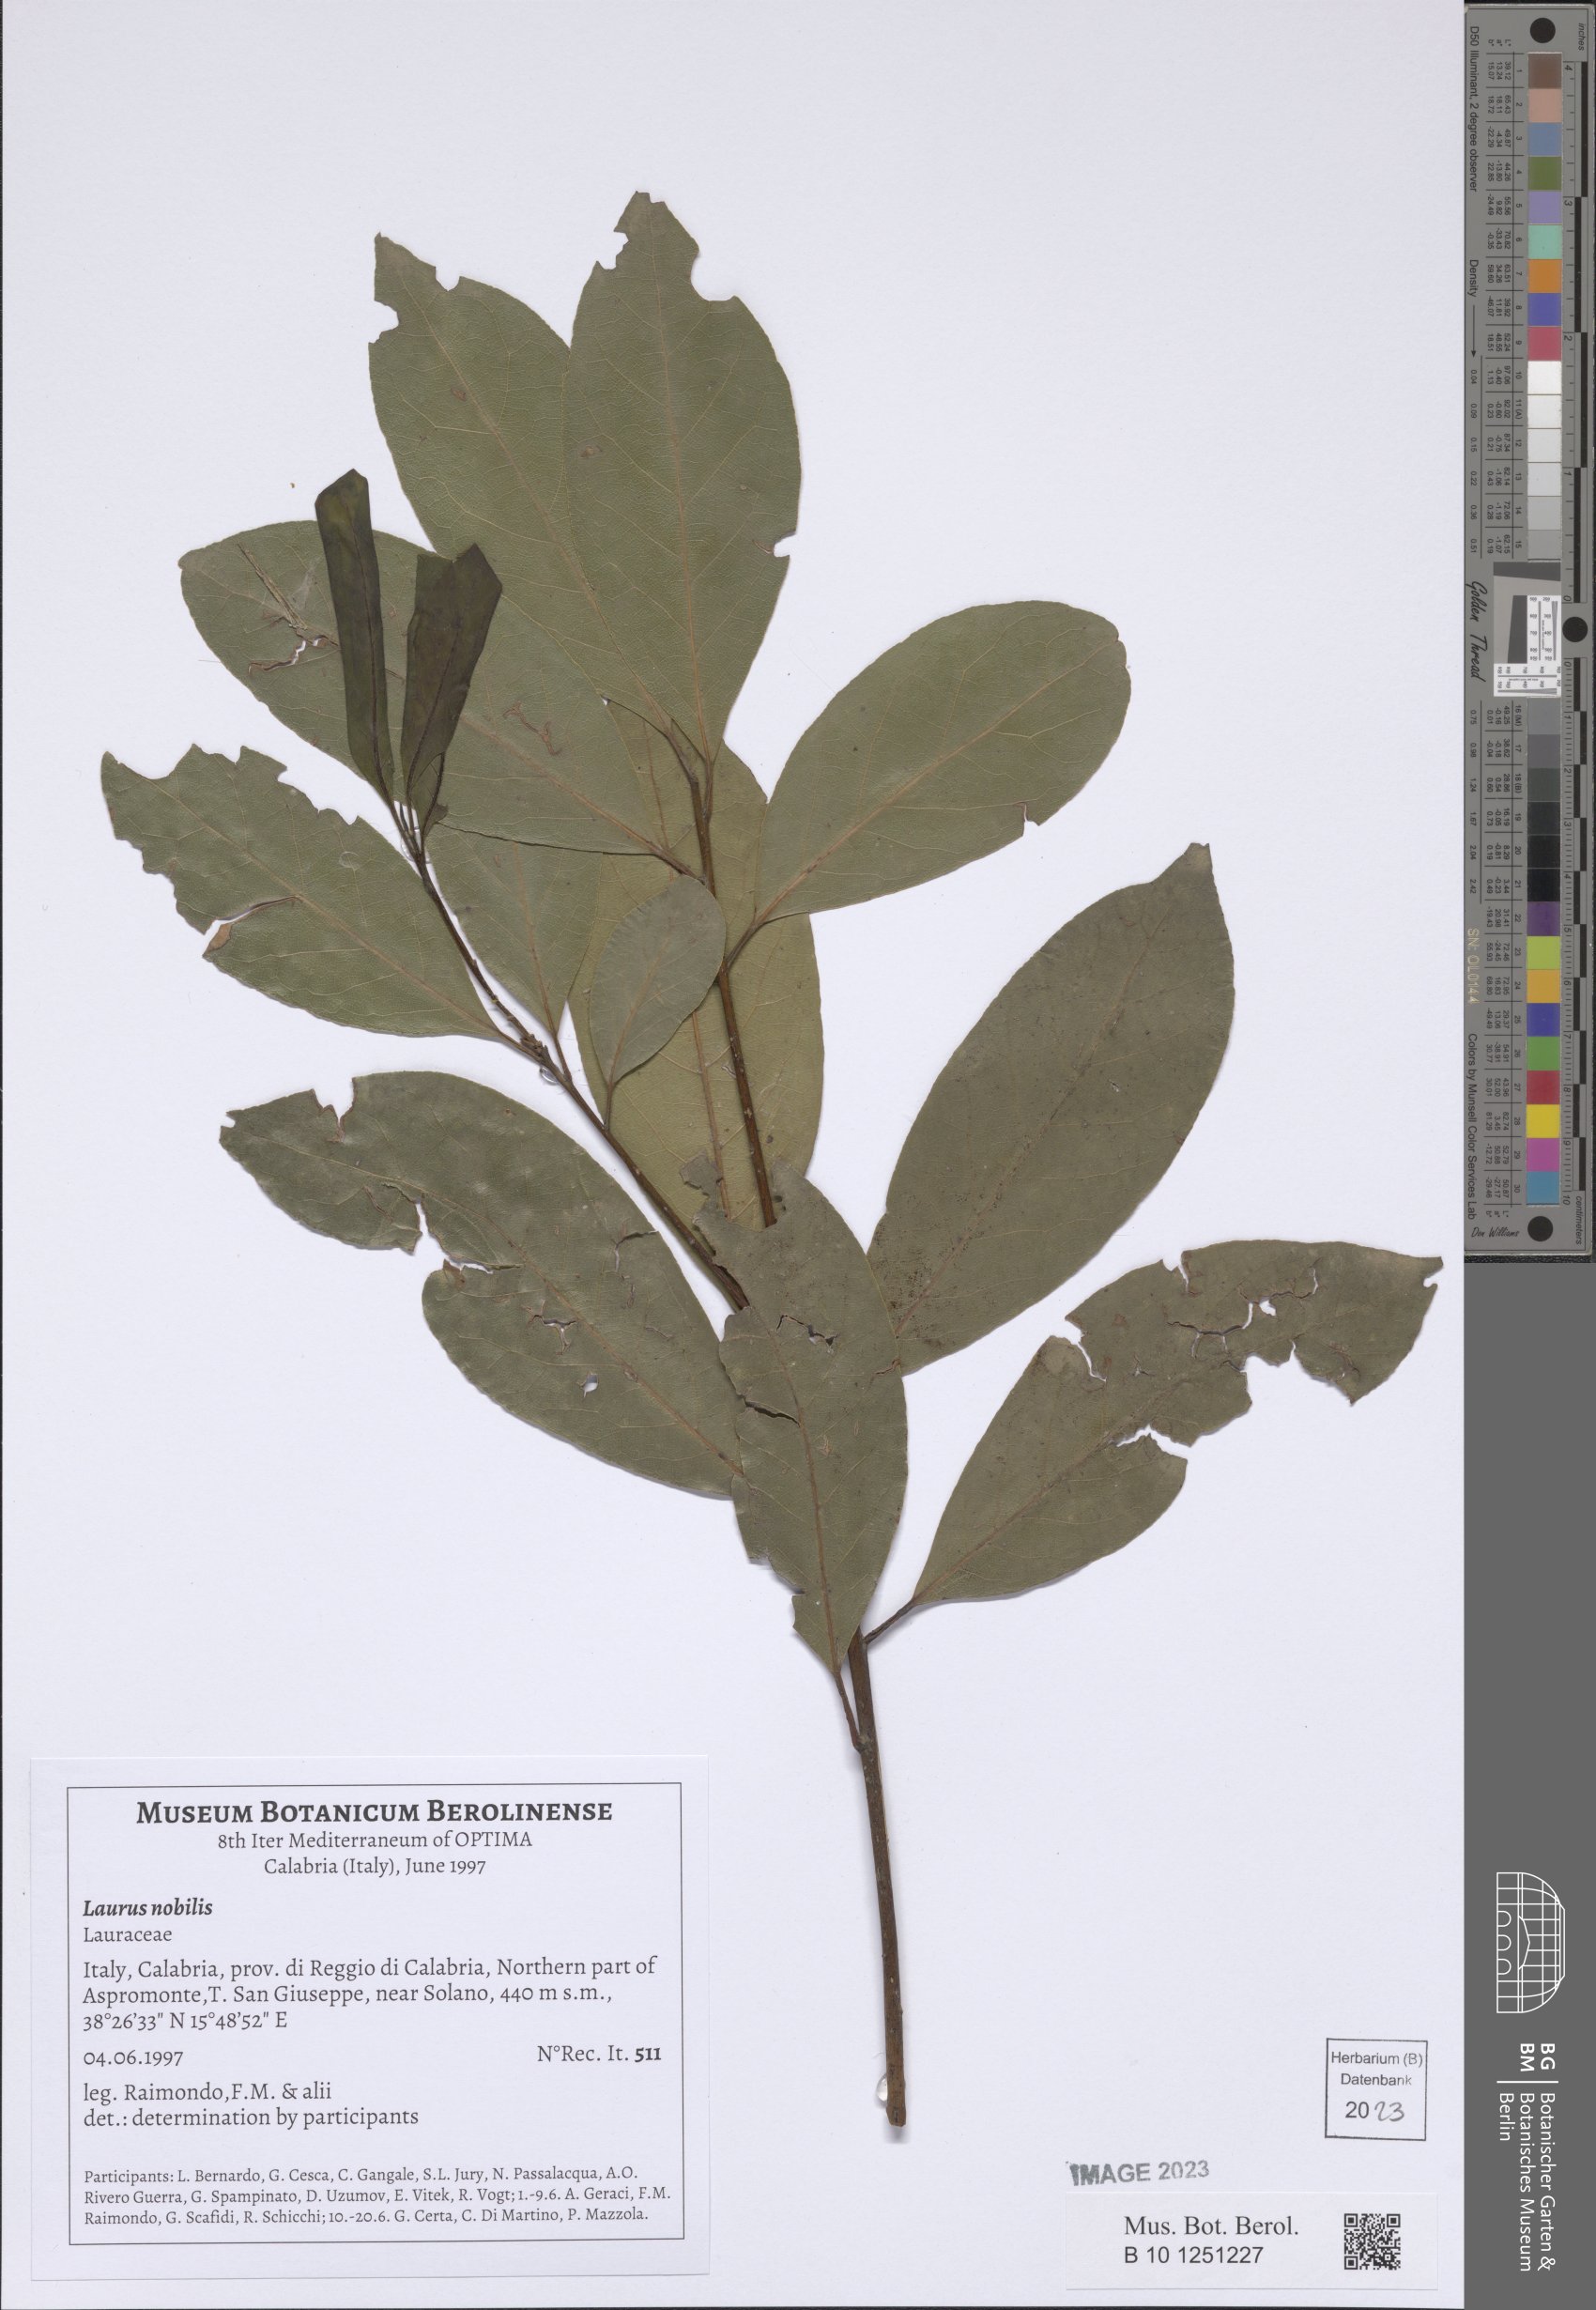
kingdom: Plantae
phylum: Tracheophyta
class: Magnoliopsida
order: Laurales
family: Lauraceae
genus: Laurus
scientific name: Laurus nobilis
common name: Bay
